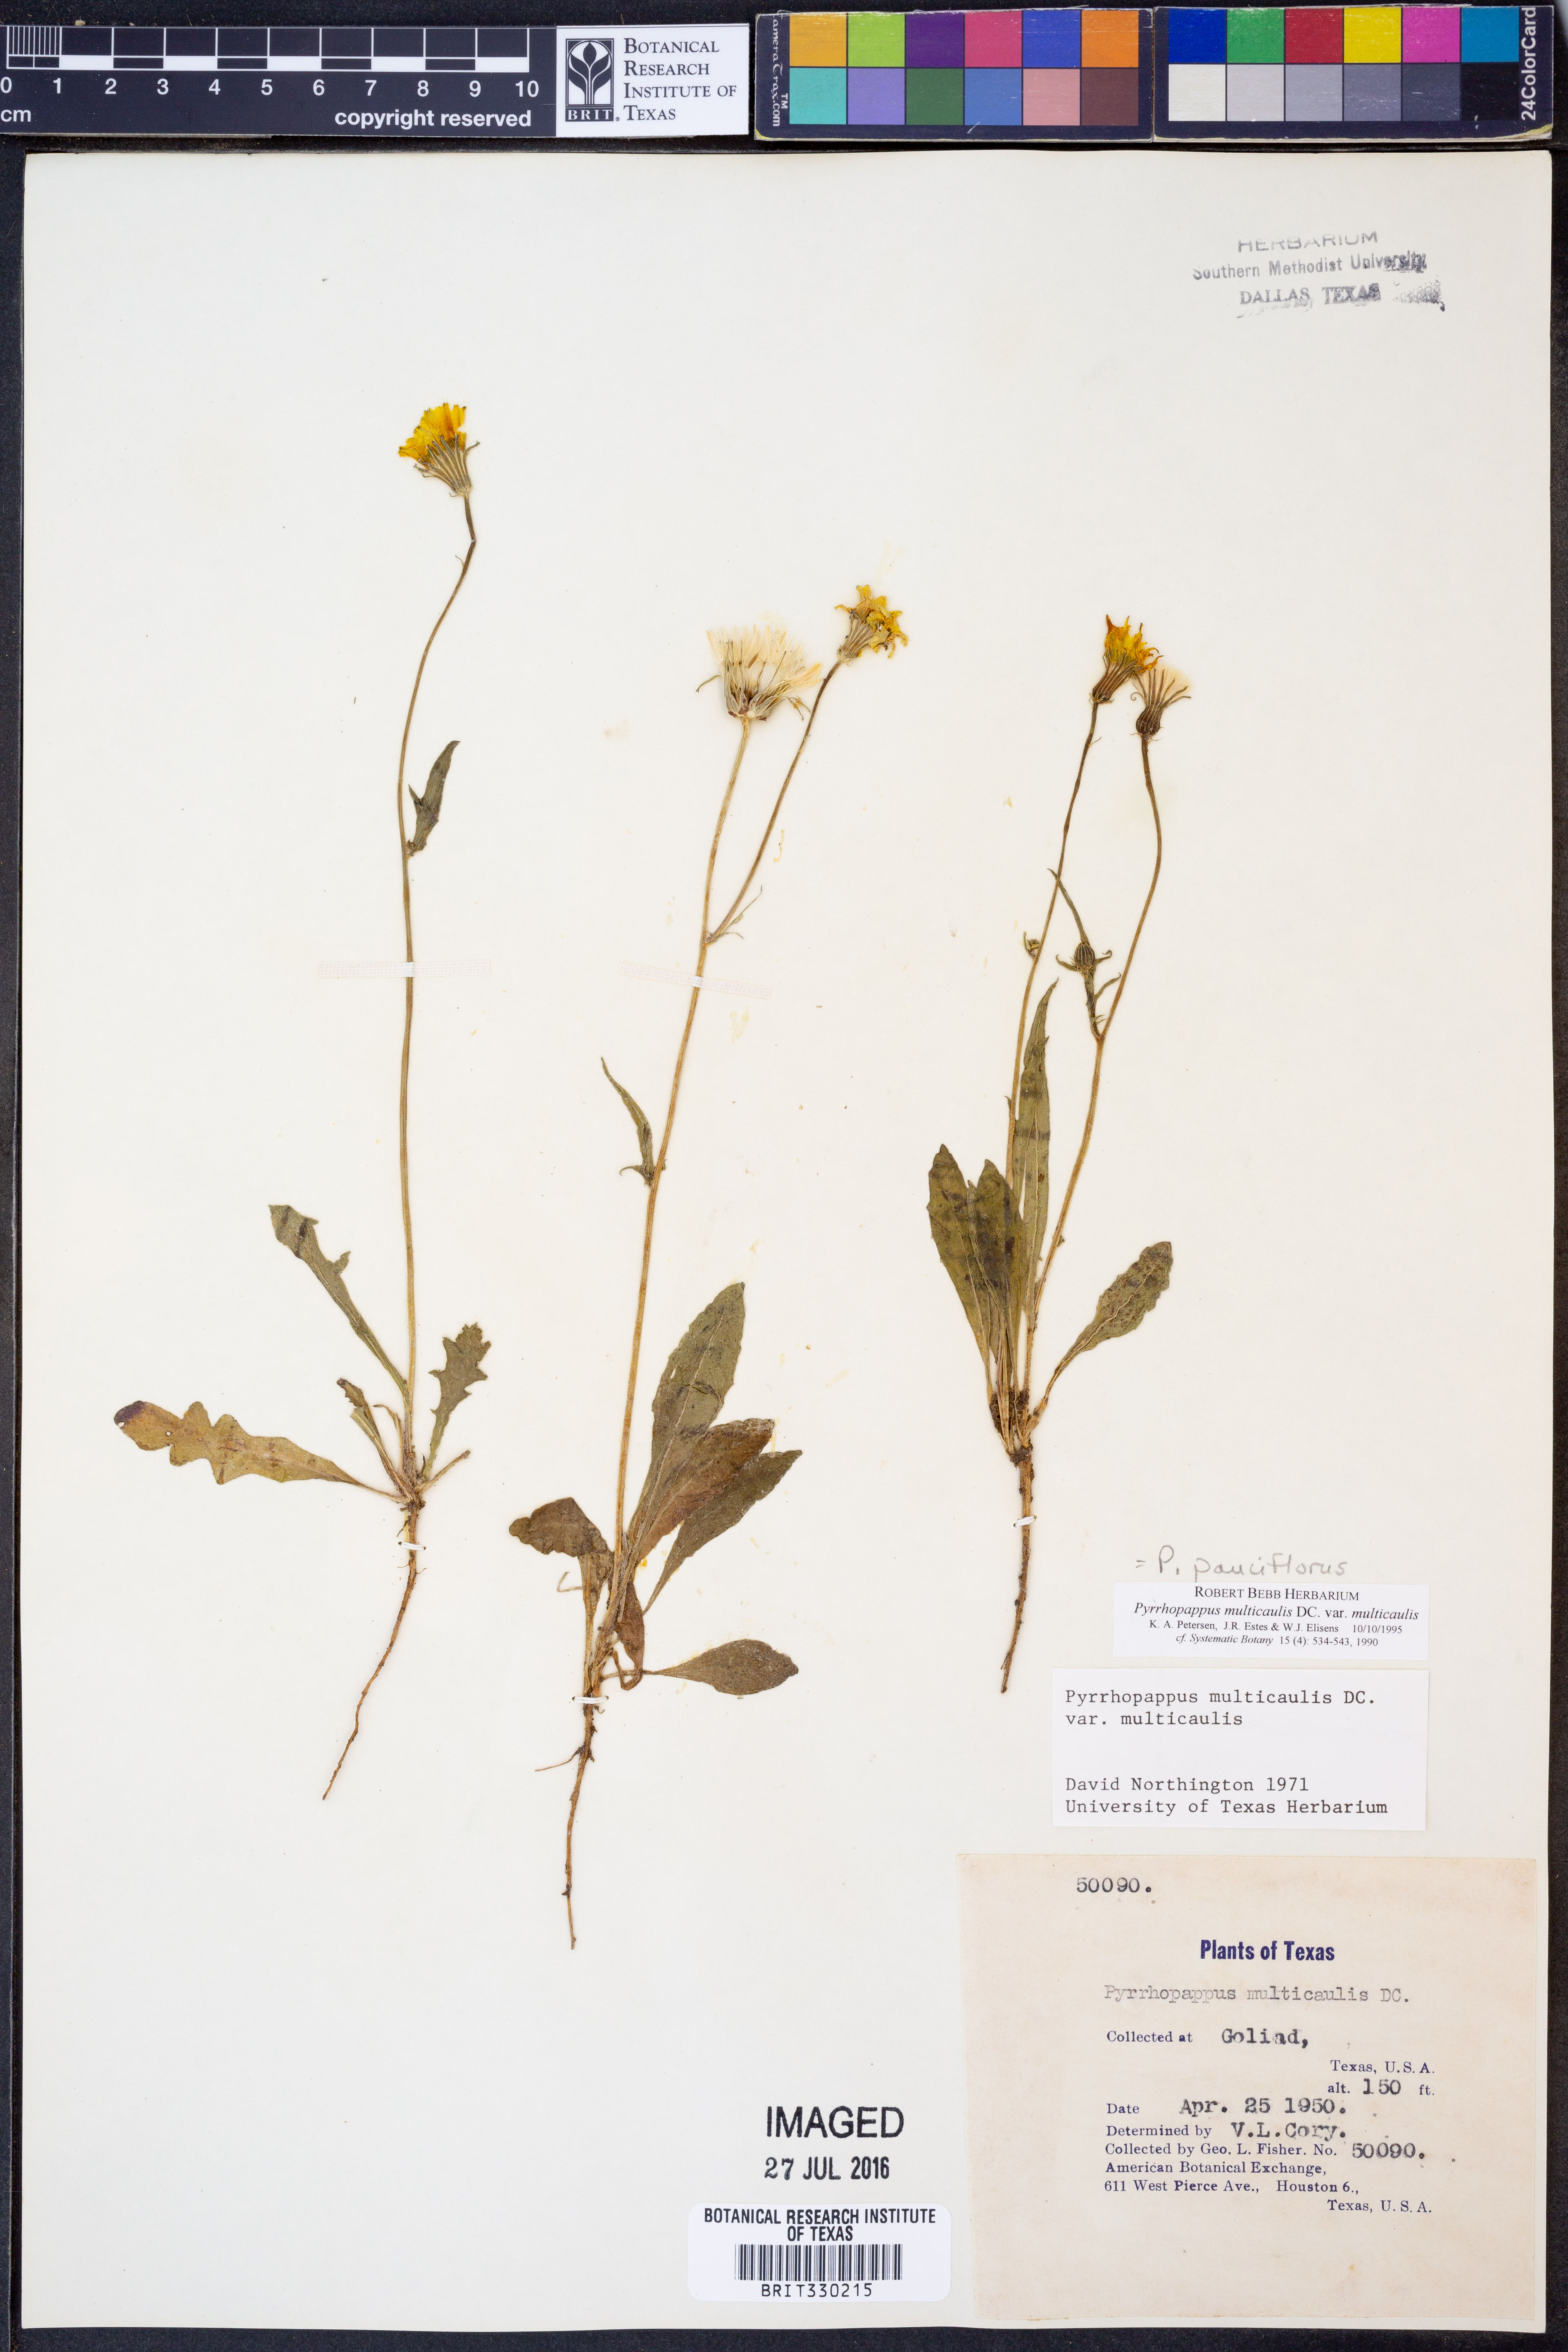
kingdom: Plantae
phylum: Tracheophyta
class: Magnoliopsida
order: Asterales
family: Asteraceae
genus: Pyrrhopappus
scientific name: Pyrrhopappus pauciflorus
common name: Texas false dandelion
